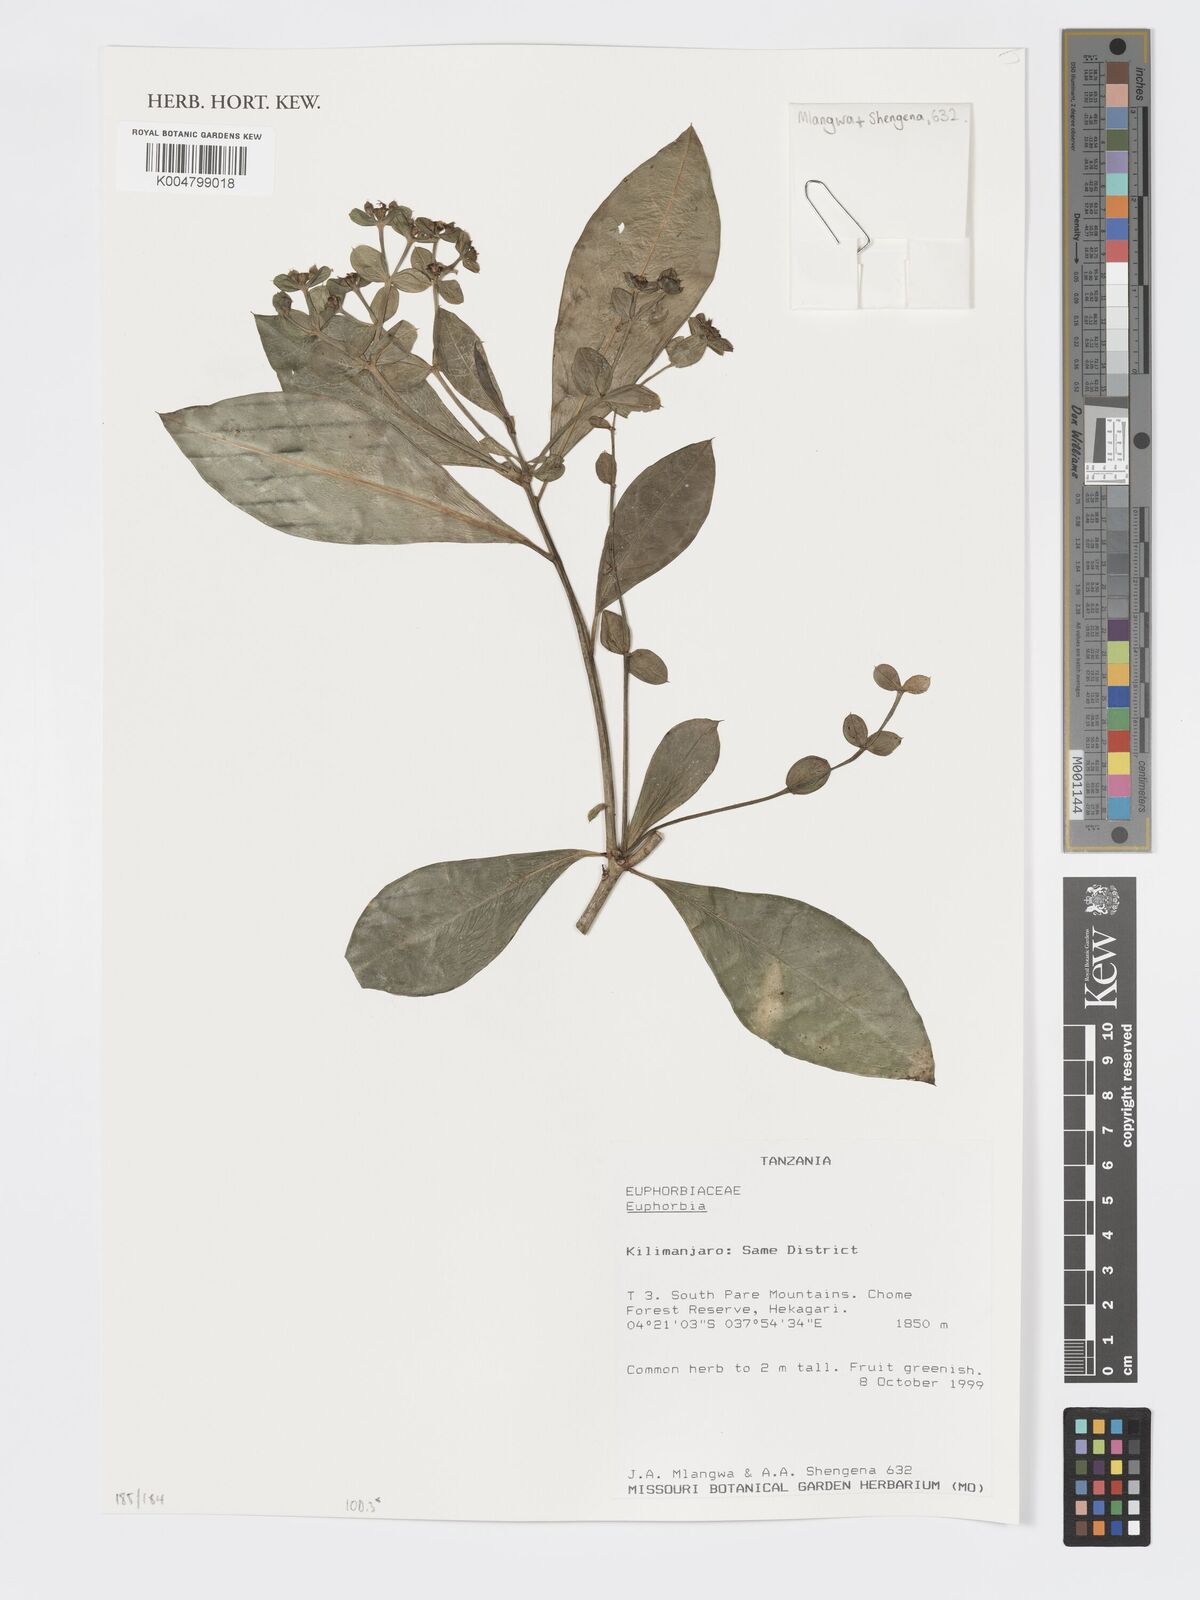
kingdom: Plantae
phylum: Tracheophyta
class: Magnoliopsida
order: Malpighiales
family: Euphorbiaceae
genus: Euphorbia
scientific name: Euphorbia
